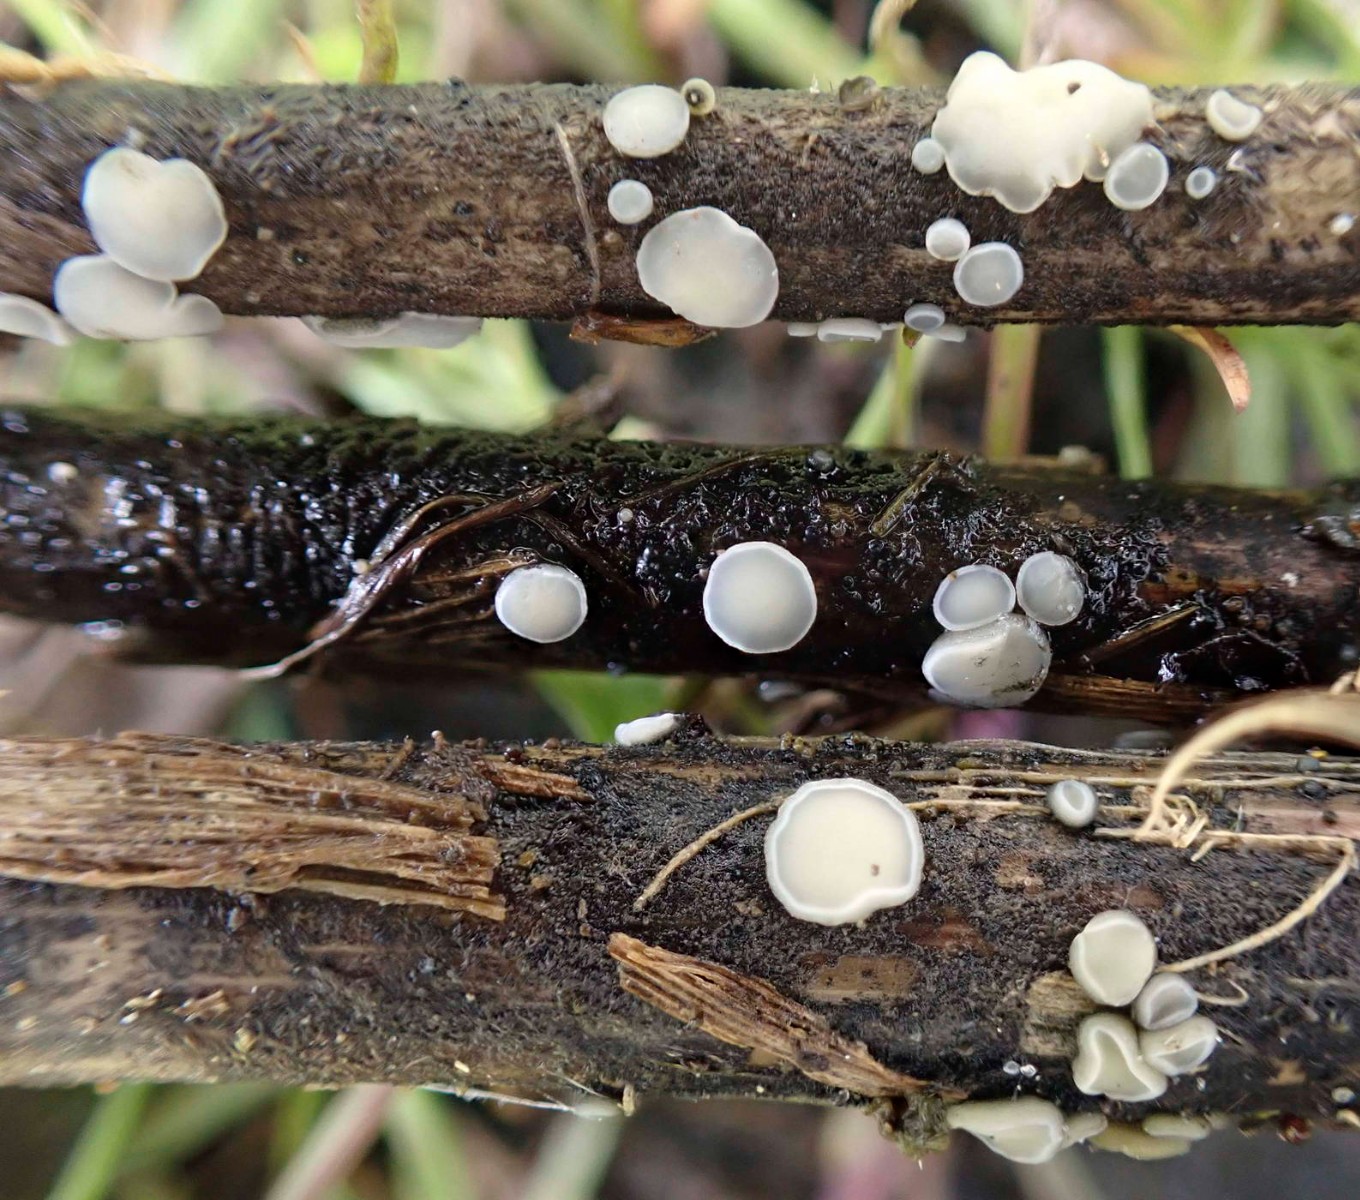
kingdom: Fungi
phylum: Ascomycota
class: Leotiomycetes
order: Helotiales
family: Mollisiaceae
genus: Trichobelonium
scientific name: Trichobelonium kneiffii
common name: tagrør-gråskive
